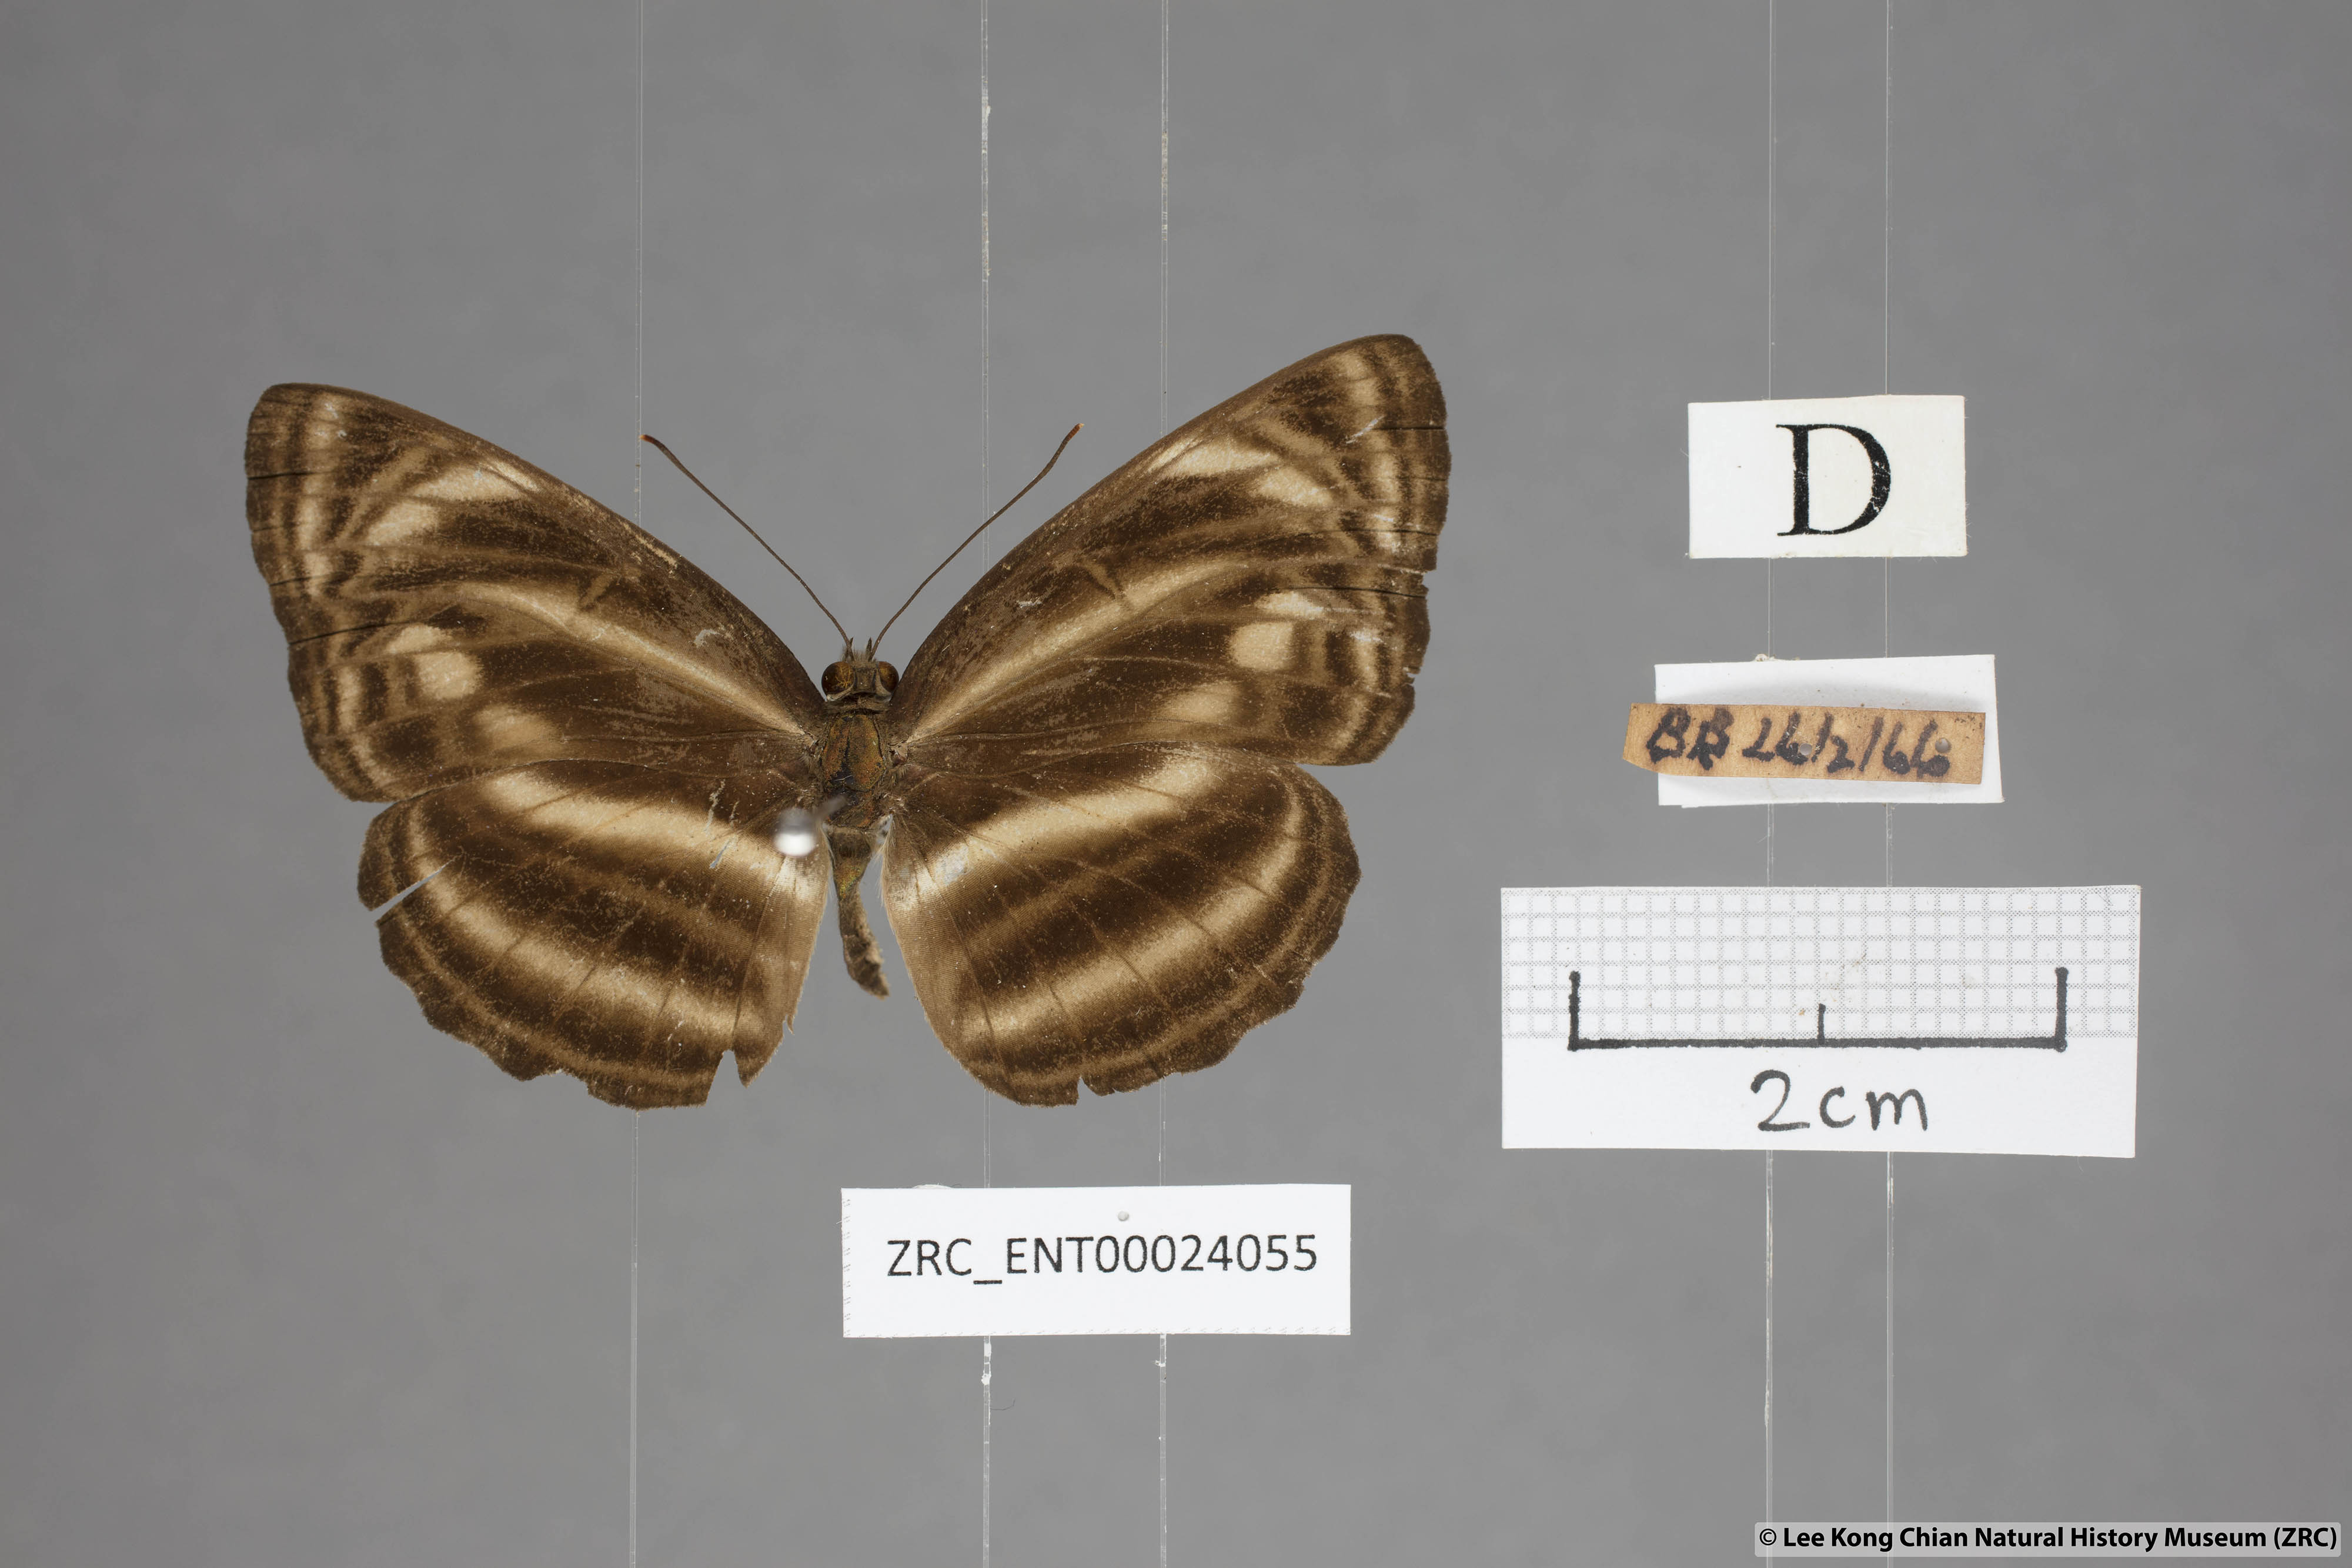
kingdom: Animalia
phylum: Arthropoda
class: Insecta
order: Lepidoptera
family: Nymphalidae
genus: Neptis
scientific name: Neptis omeroda
